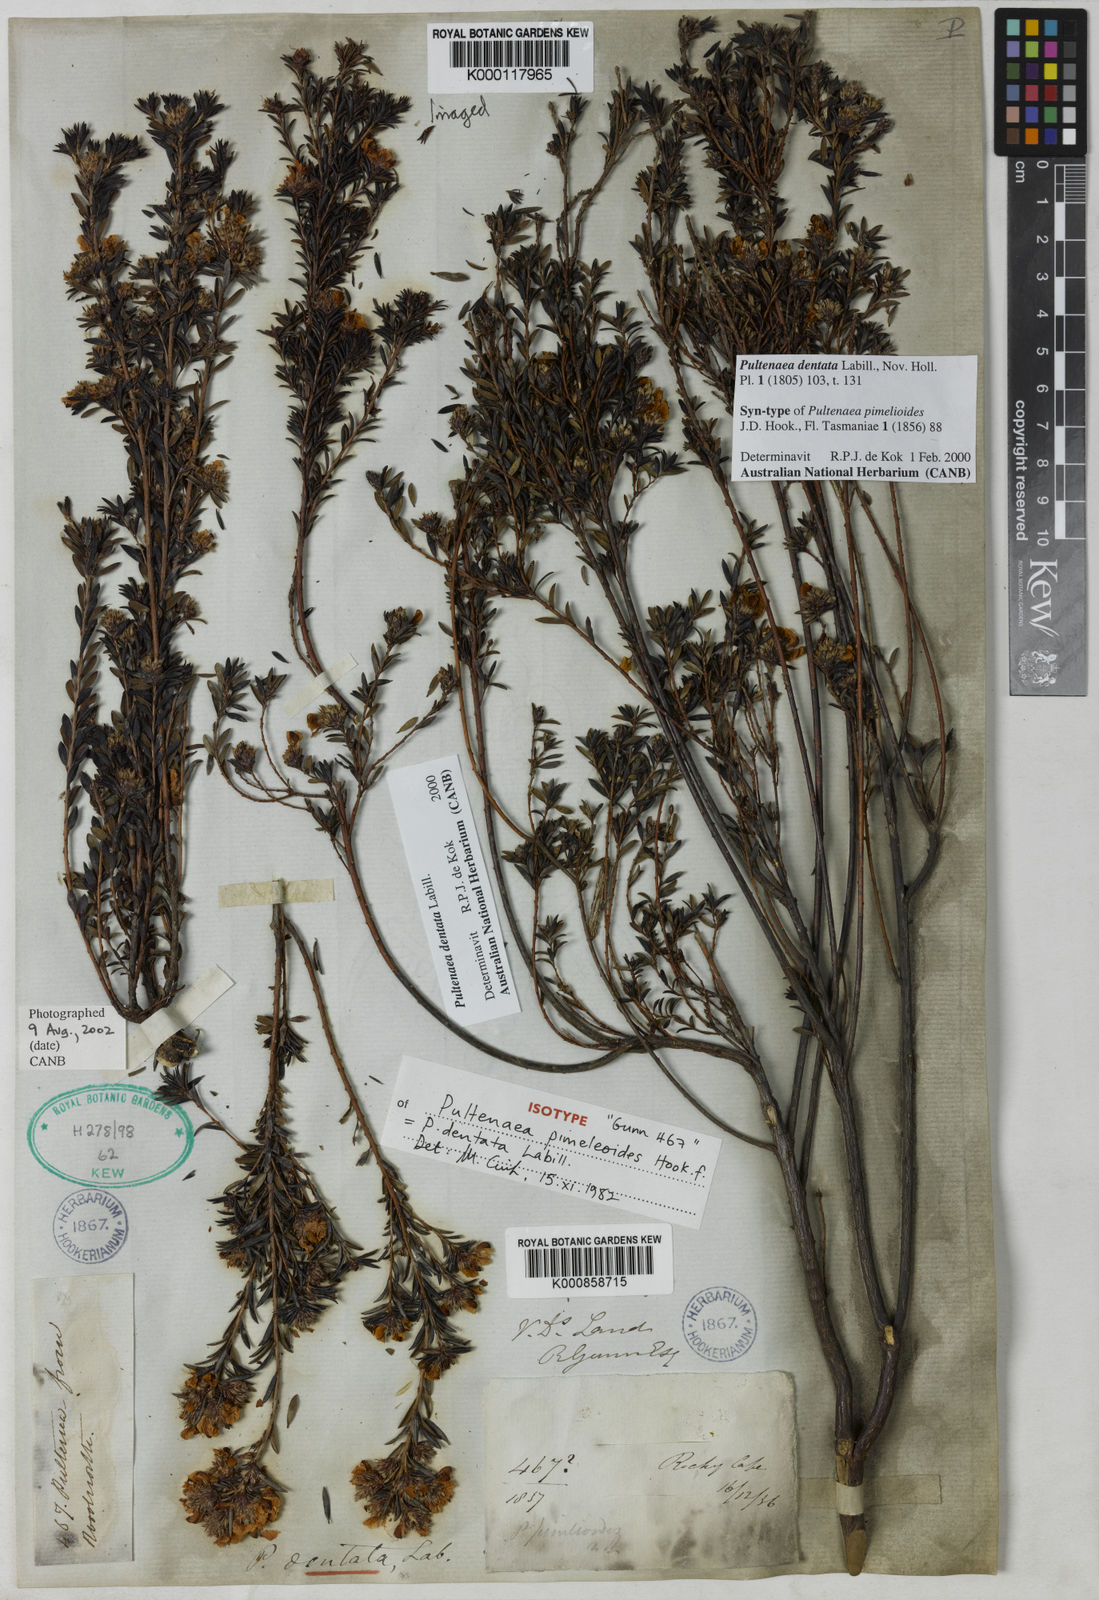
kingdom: Plantae
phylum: Tracheophyta
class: Magnoliopsida
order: Fabales
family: Fabaceae
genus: Pultenaea
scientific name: Pultenaea dentata
